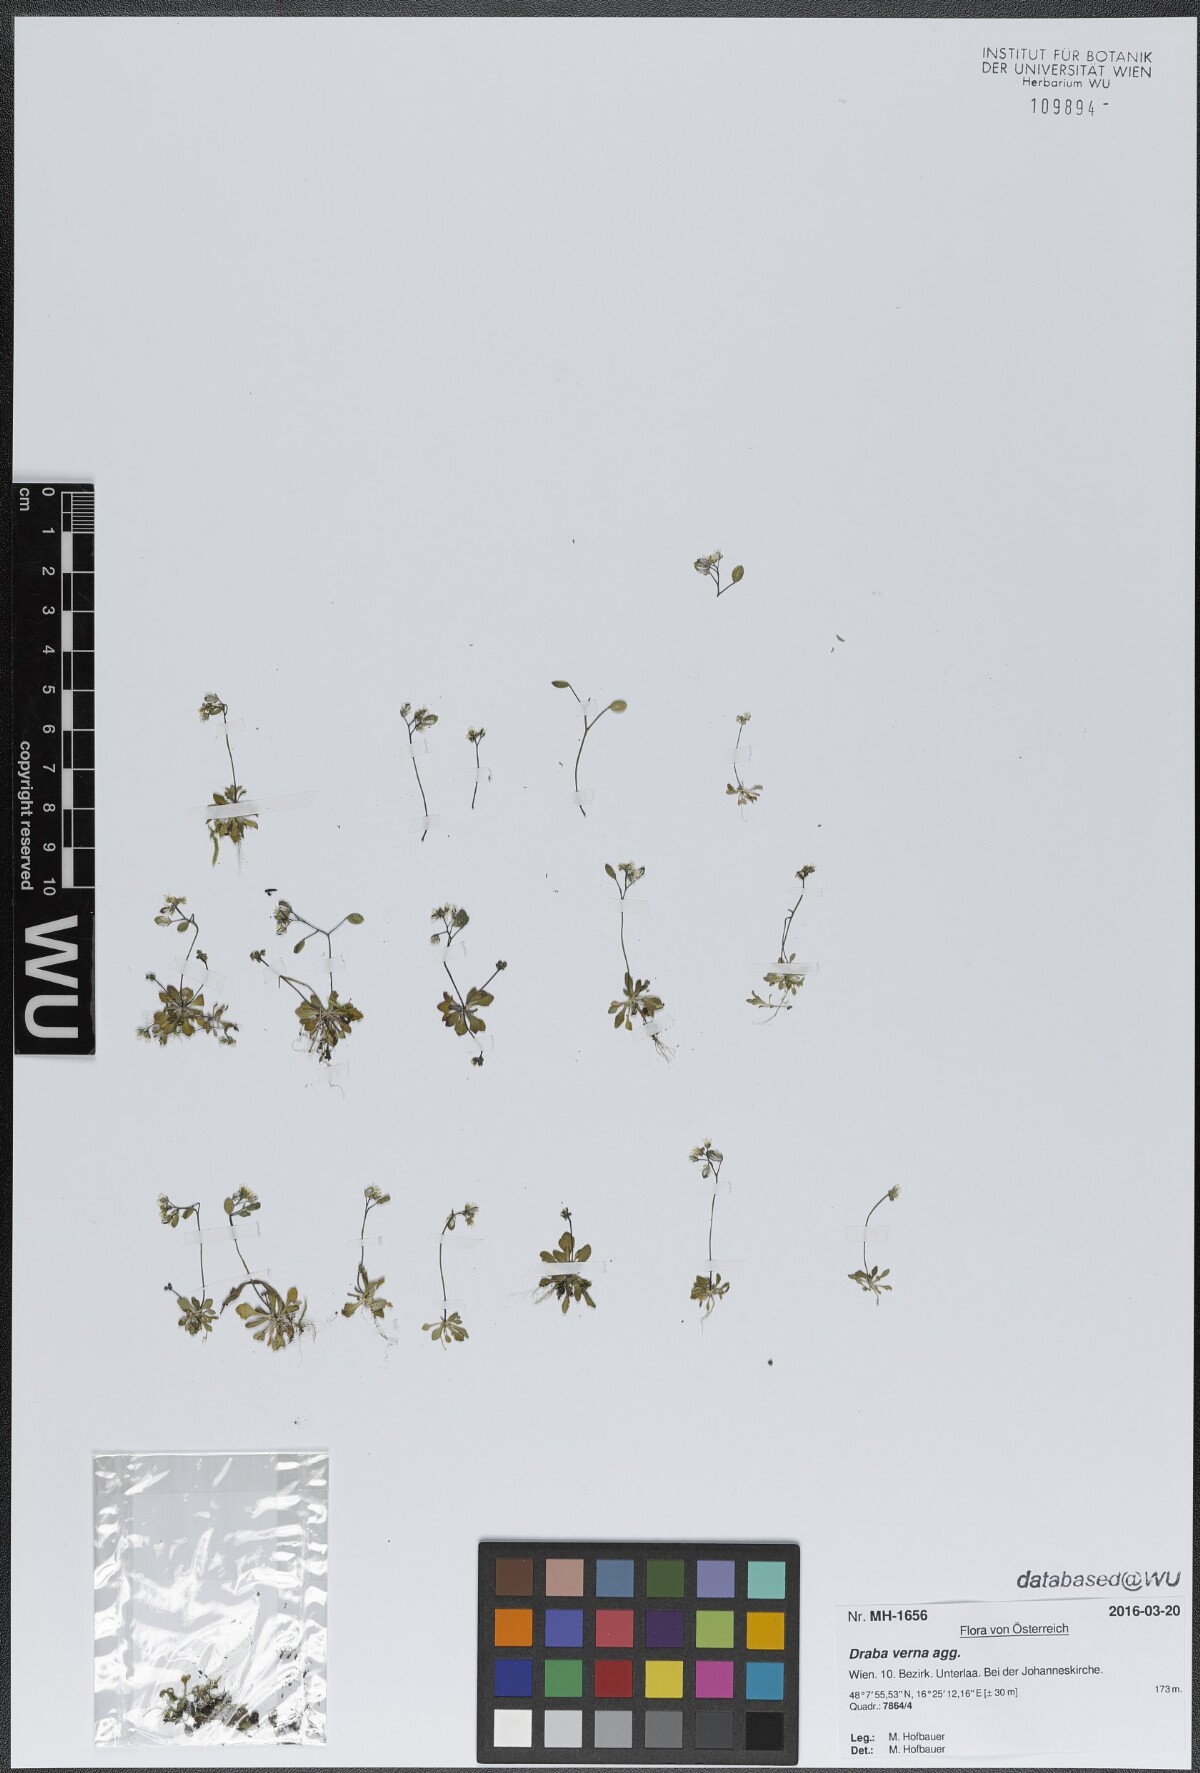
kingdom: Plantae
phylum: Tracheophyta
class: Magnoliopsida
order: Brassicales
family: Brassicaceae
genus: Draba
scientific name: Draba verna
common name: Spring draba
